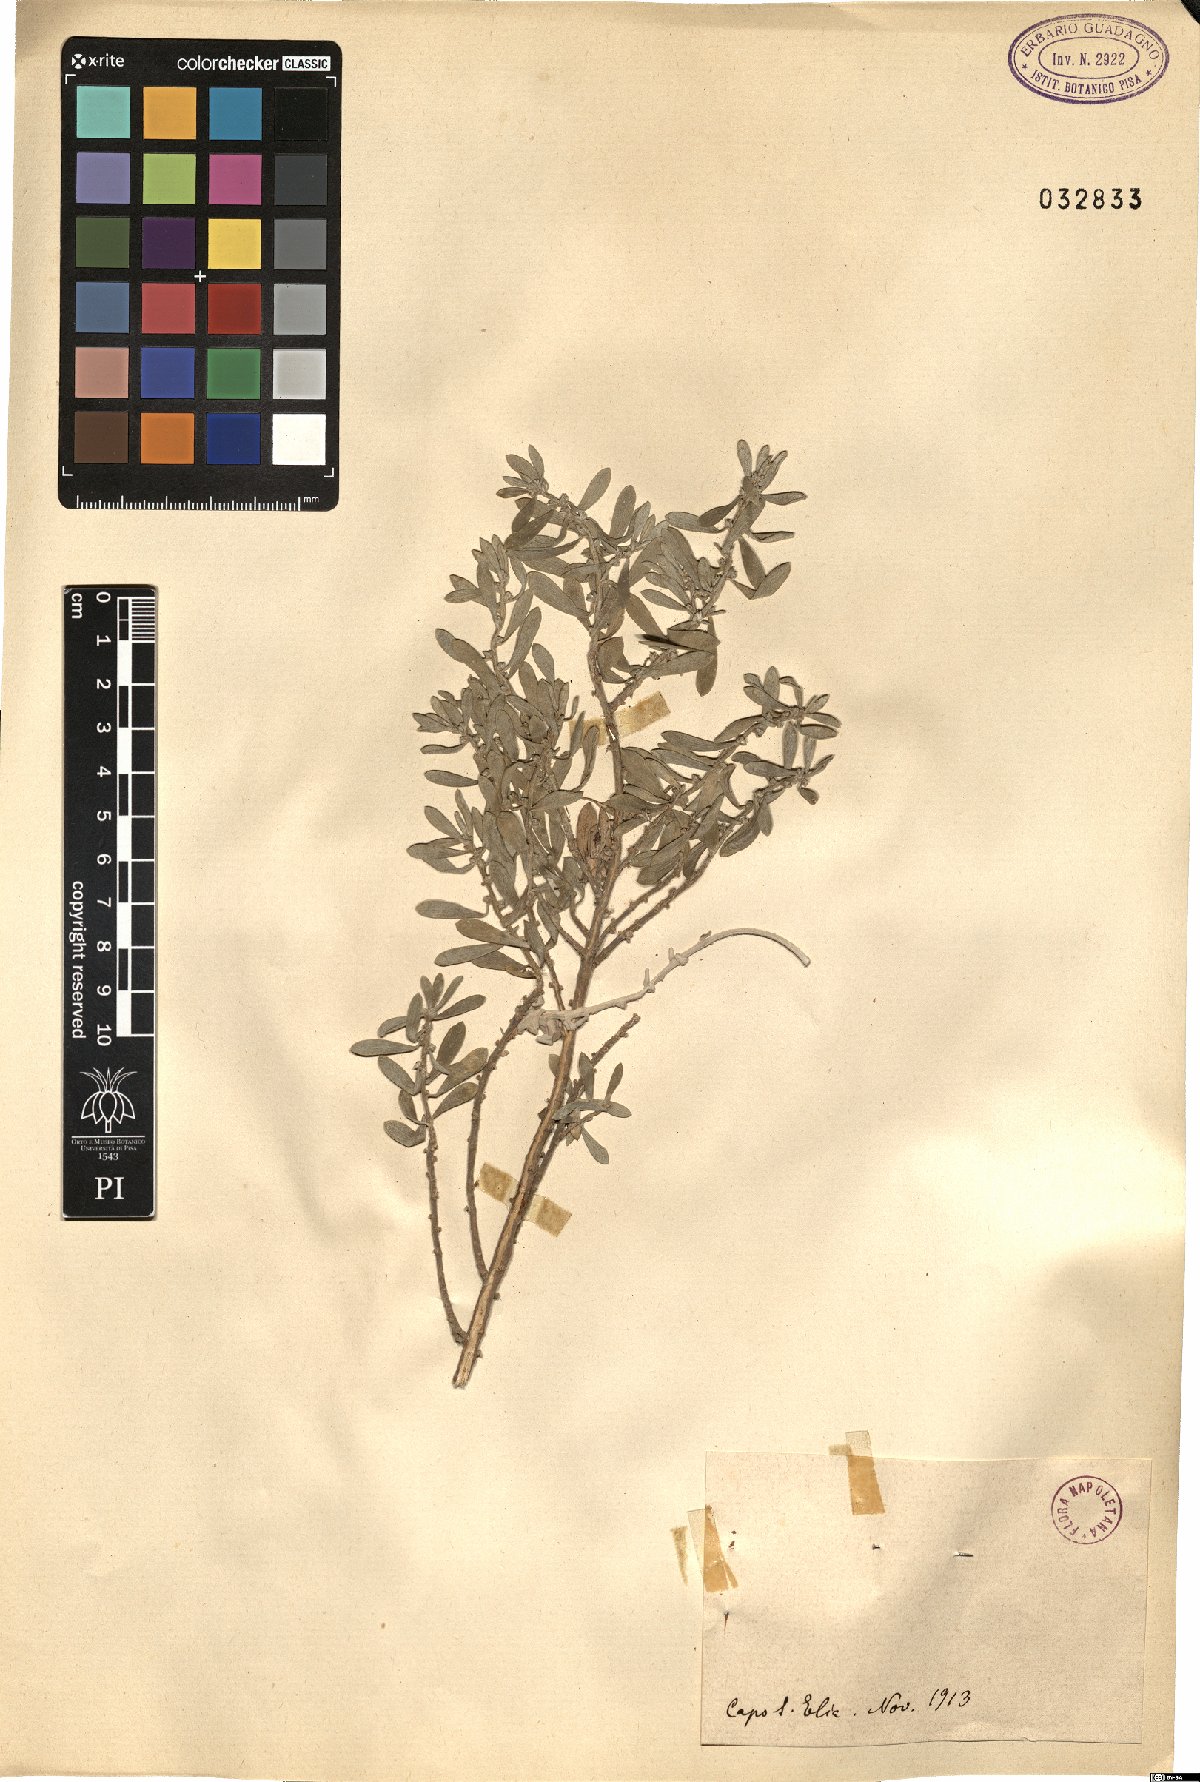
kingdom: Plantae
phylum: Tracheophyta
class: Magnoliopsida
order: Malvales
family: Thymelaeaceae
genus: Passerina
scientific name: Passerina
